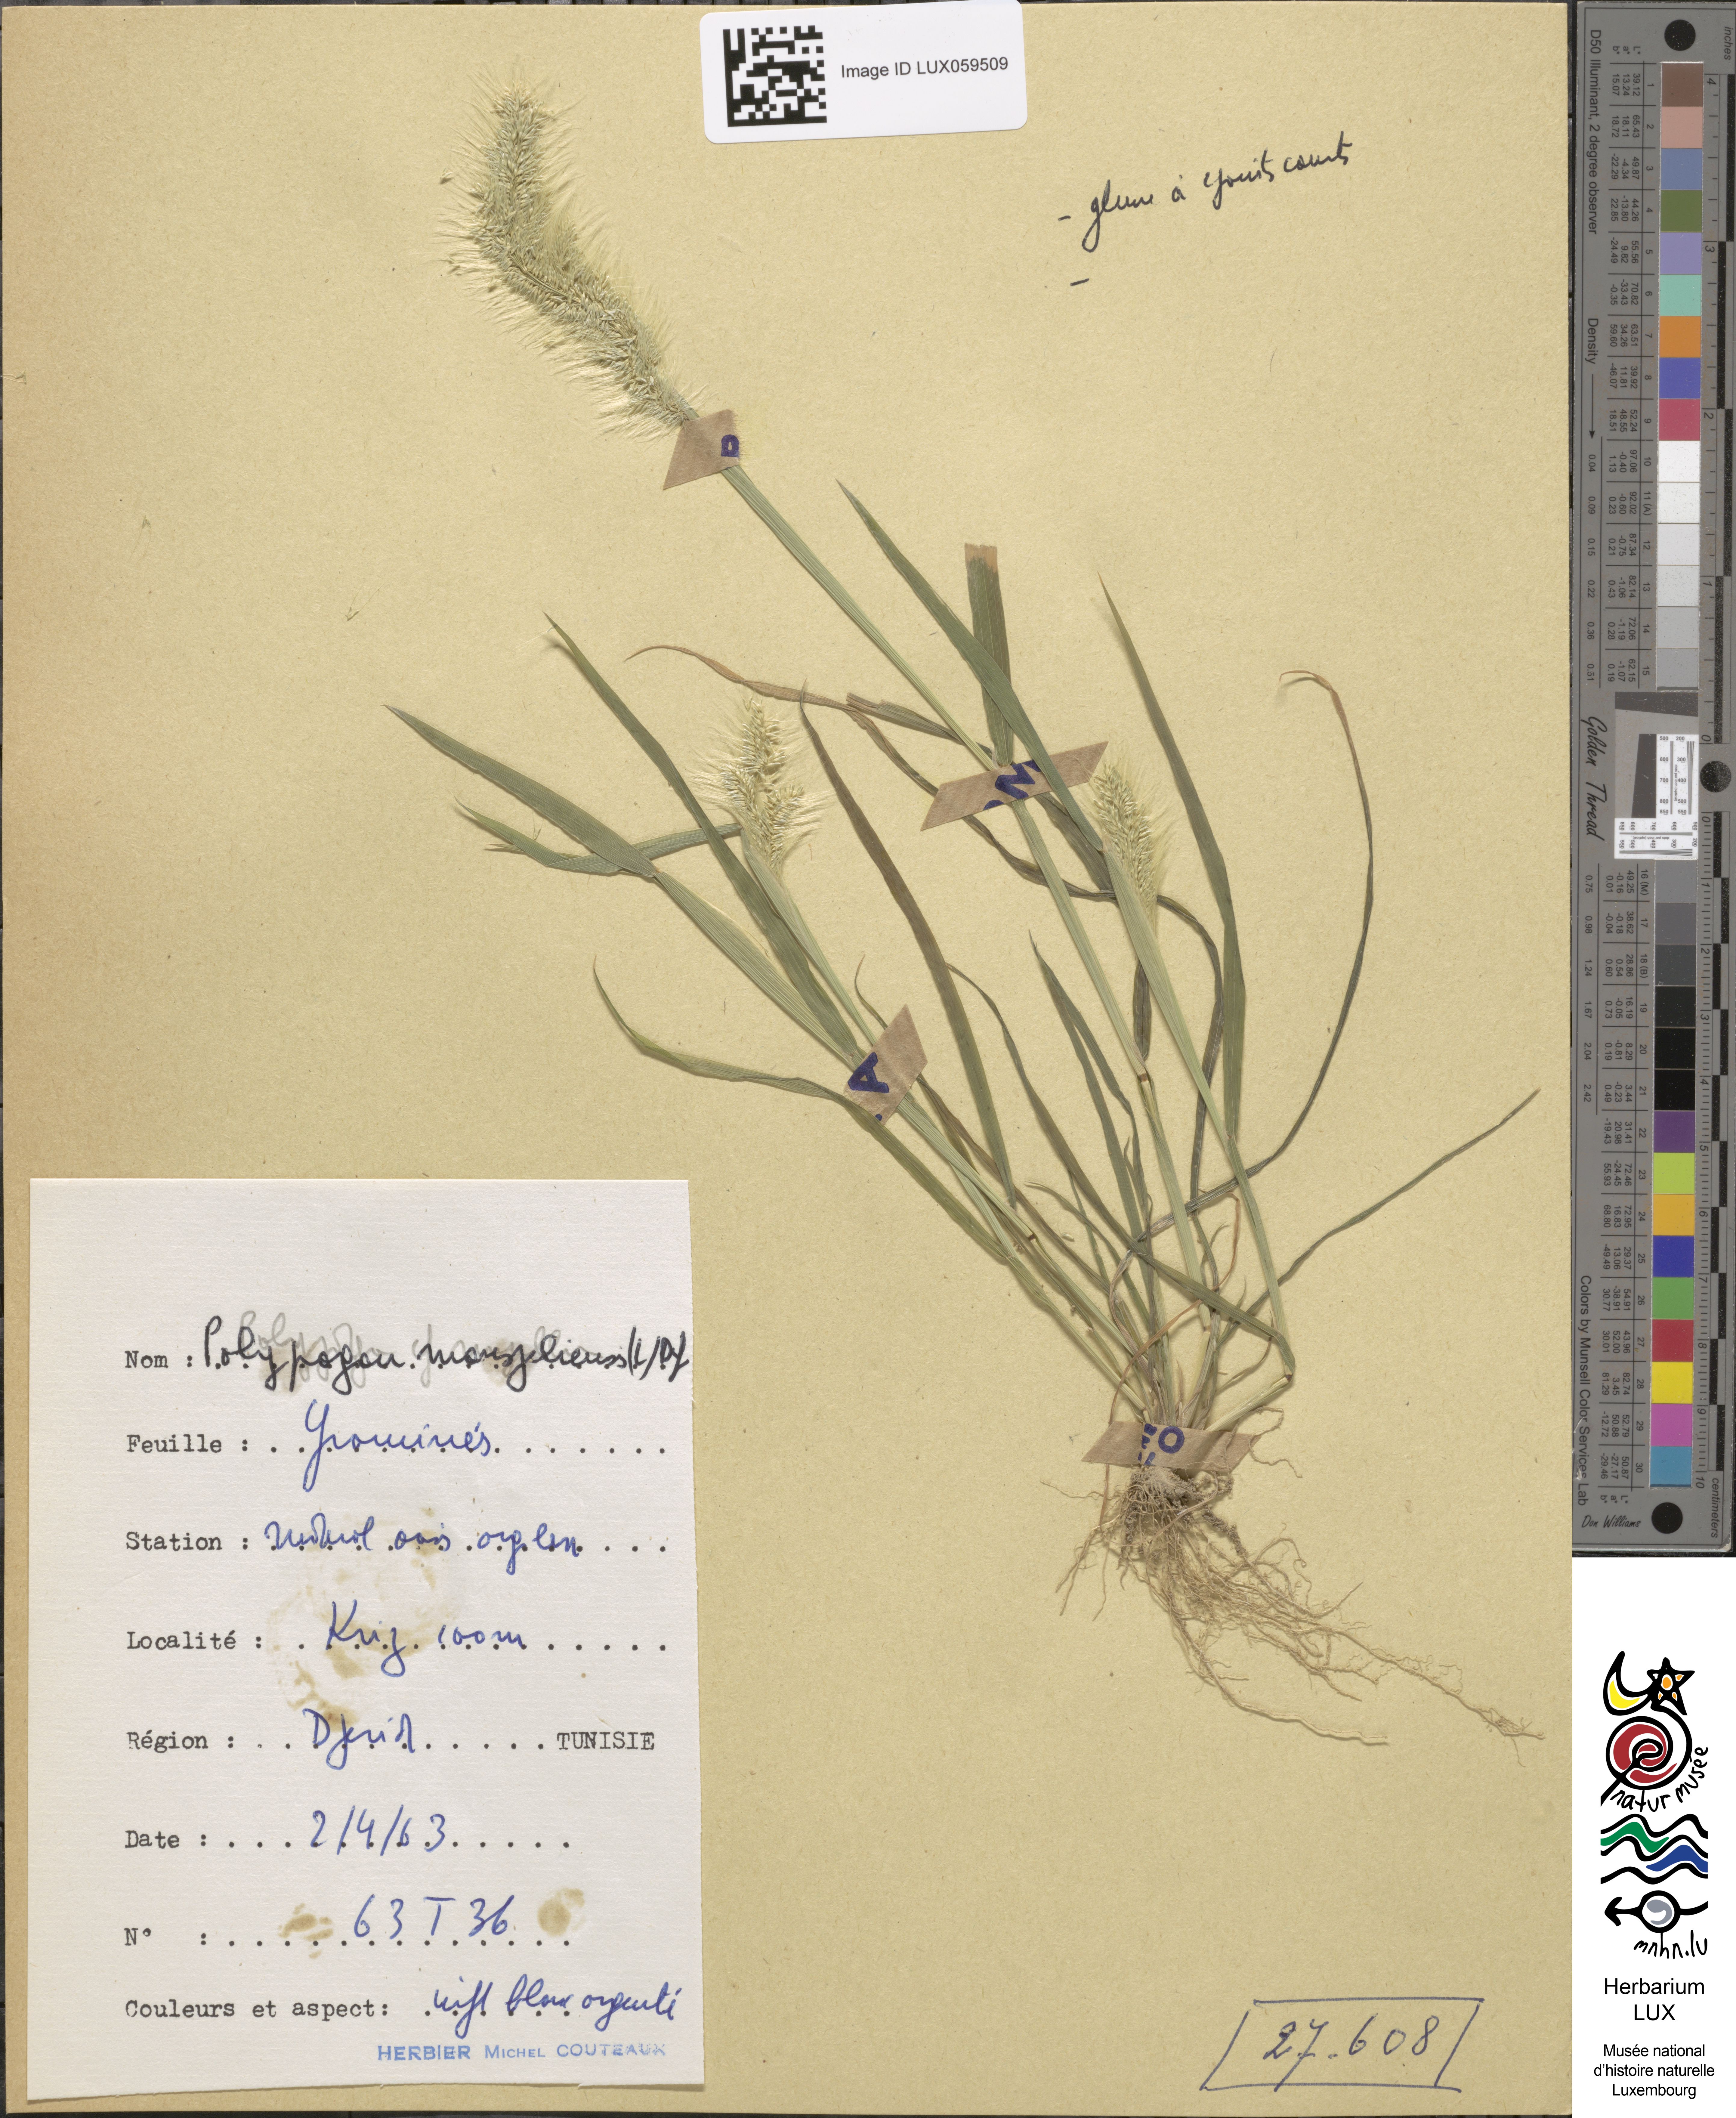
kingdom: Animalia
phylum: Arthropoda
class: Insecta
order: Lepidoptera
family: Erebidae
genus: Polypogon
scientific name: Polypogon
